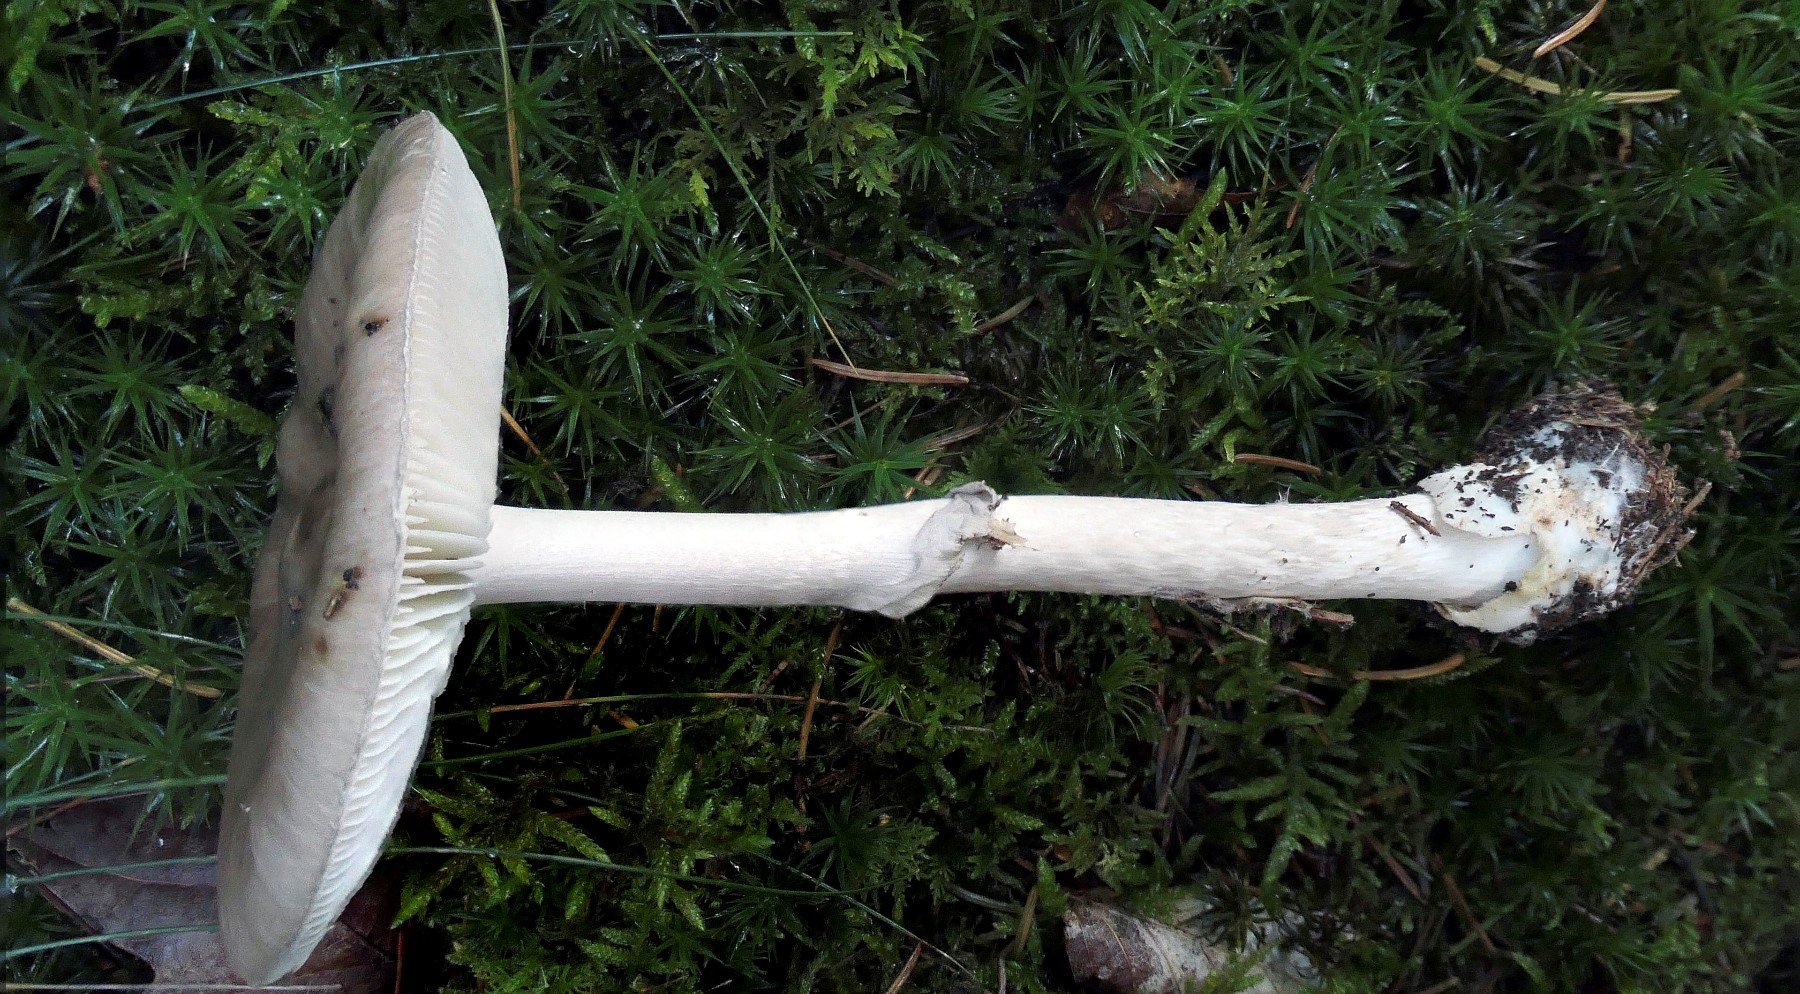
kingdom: Fungi
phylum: Basidiomycota
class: Agaricomycetes
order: Agaricales
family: Amanitaceae
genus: Amanita
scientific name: Amanita porphyria
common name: porfyr-fluesvamp
